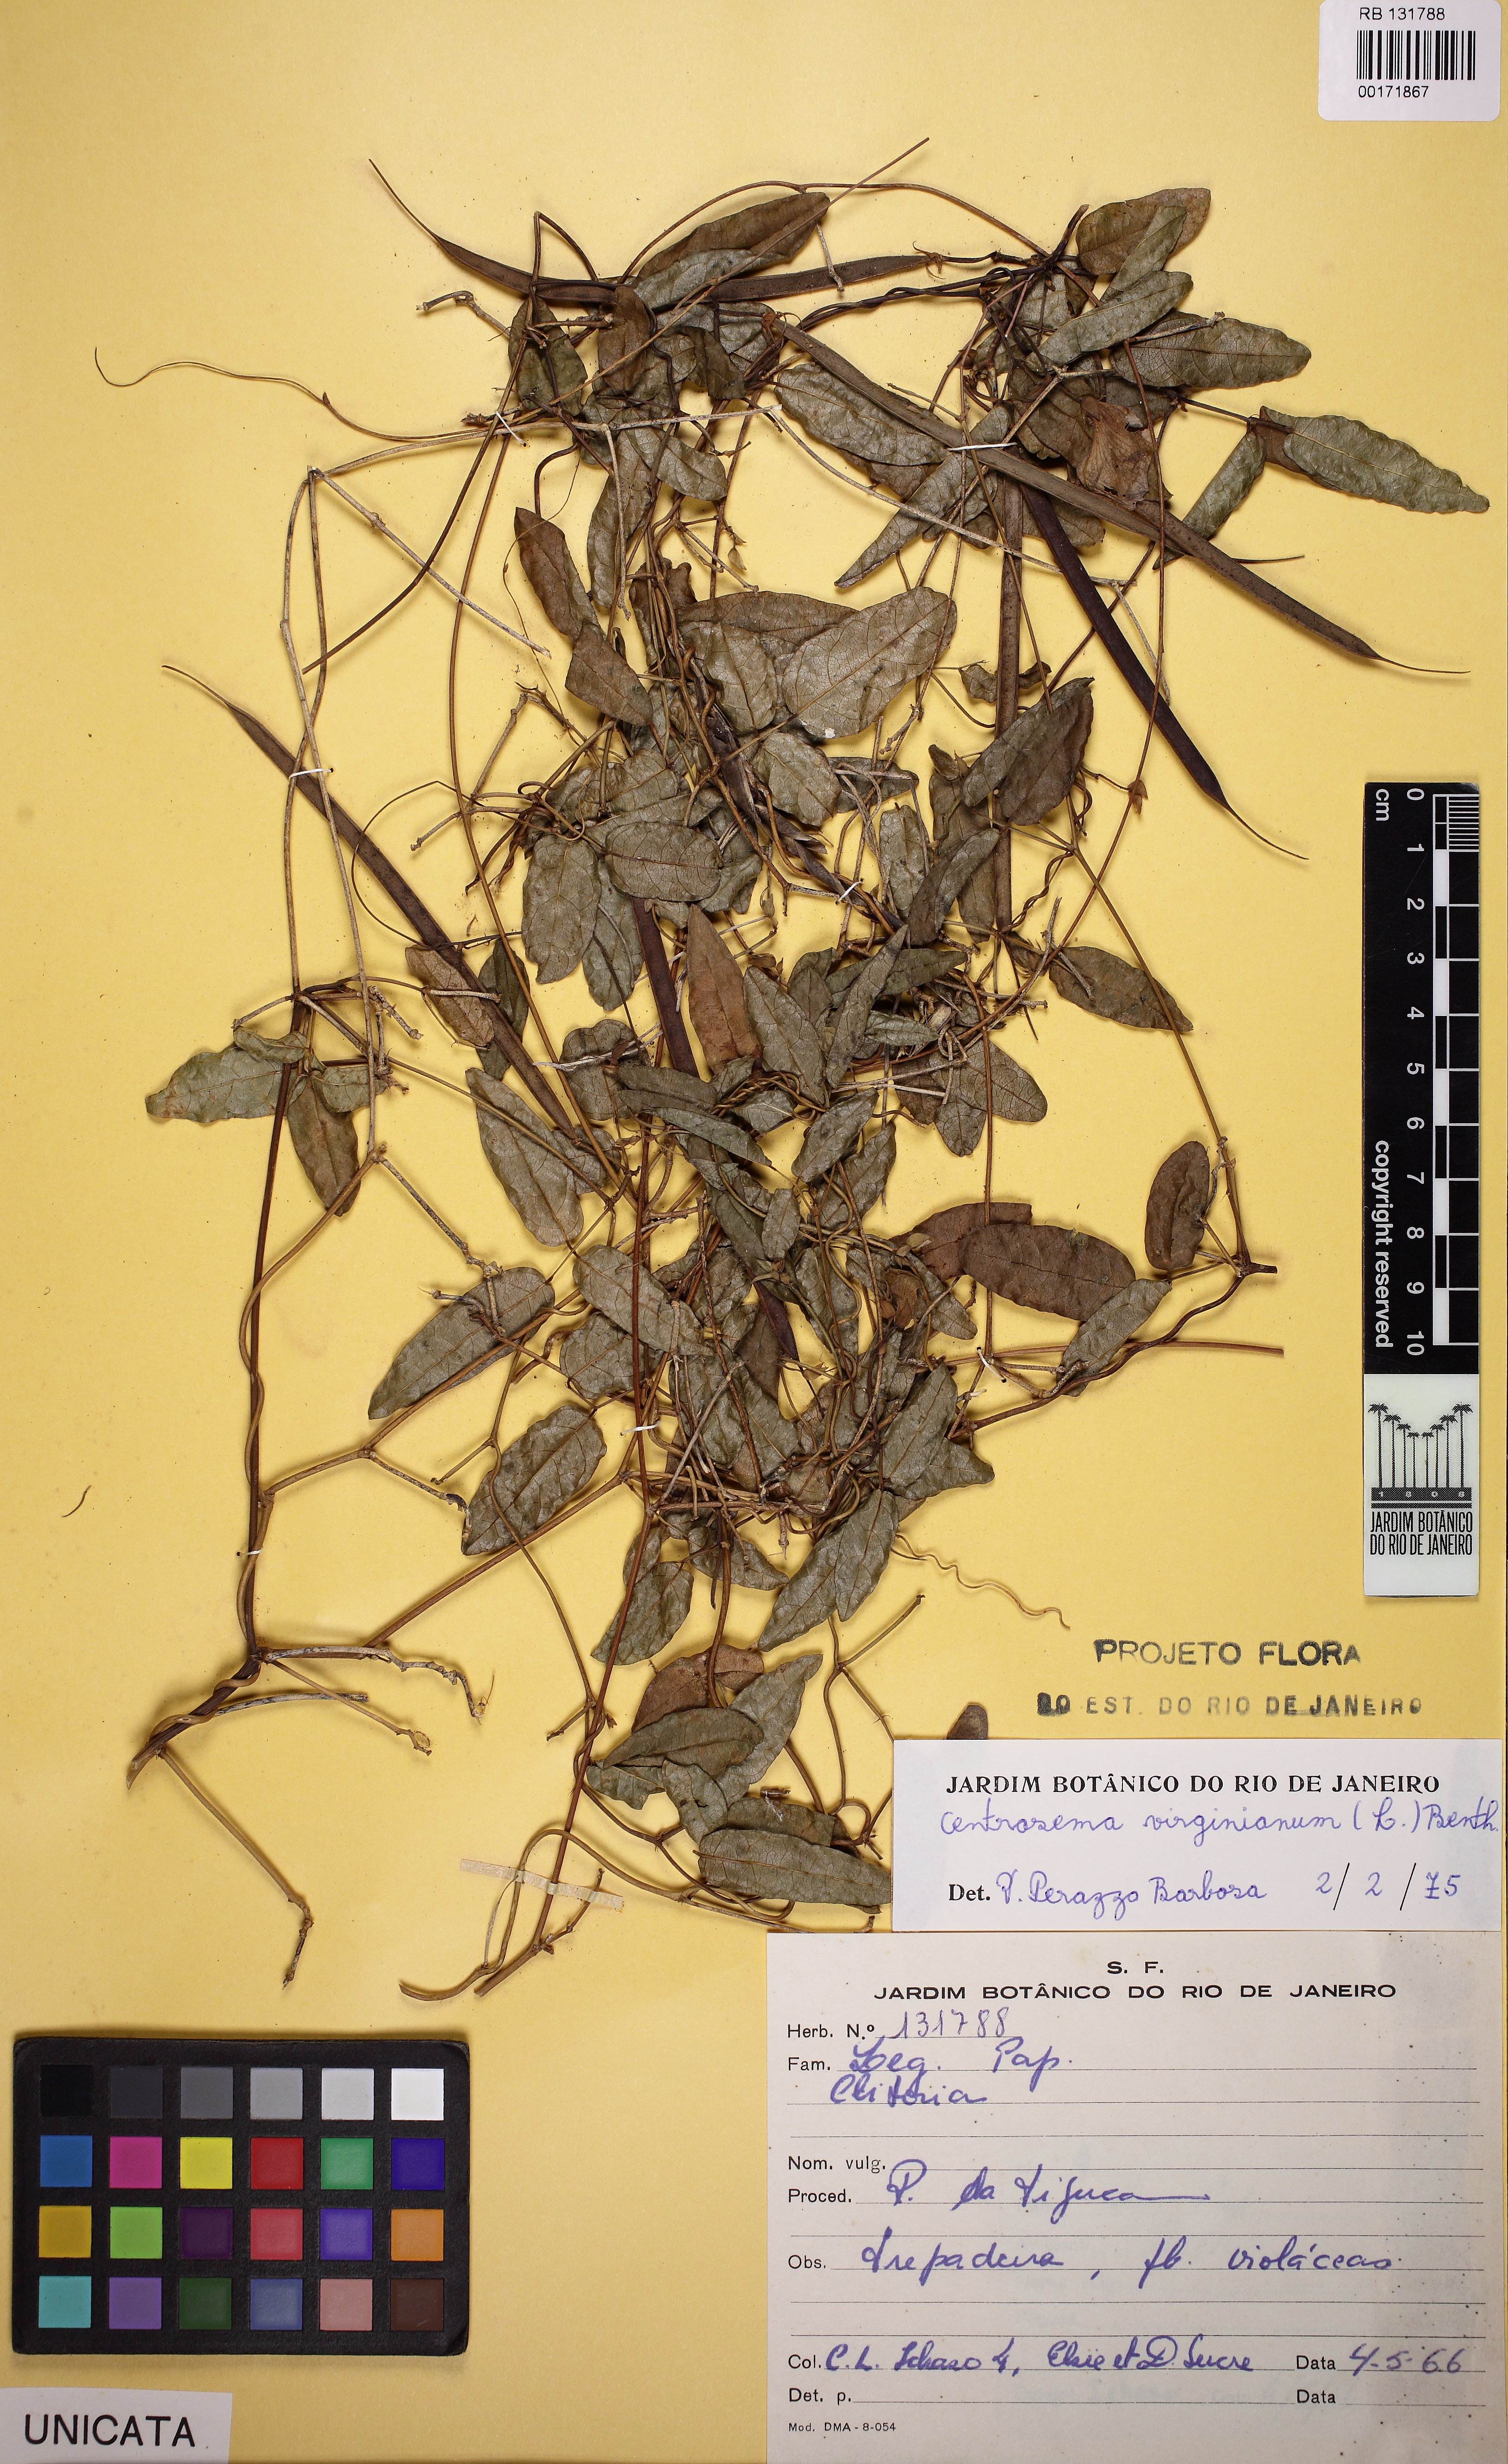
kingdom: Plantae
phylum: Tracheophyta
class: Magnoliopsida
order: Fabales
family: Fabaceae
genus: Centrosema
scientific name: Centrosema virginianum
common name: Butterfly-pea
